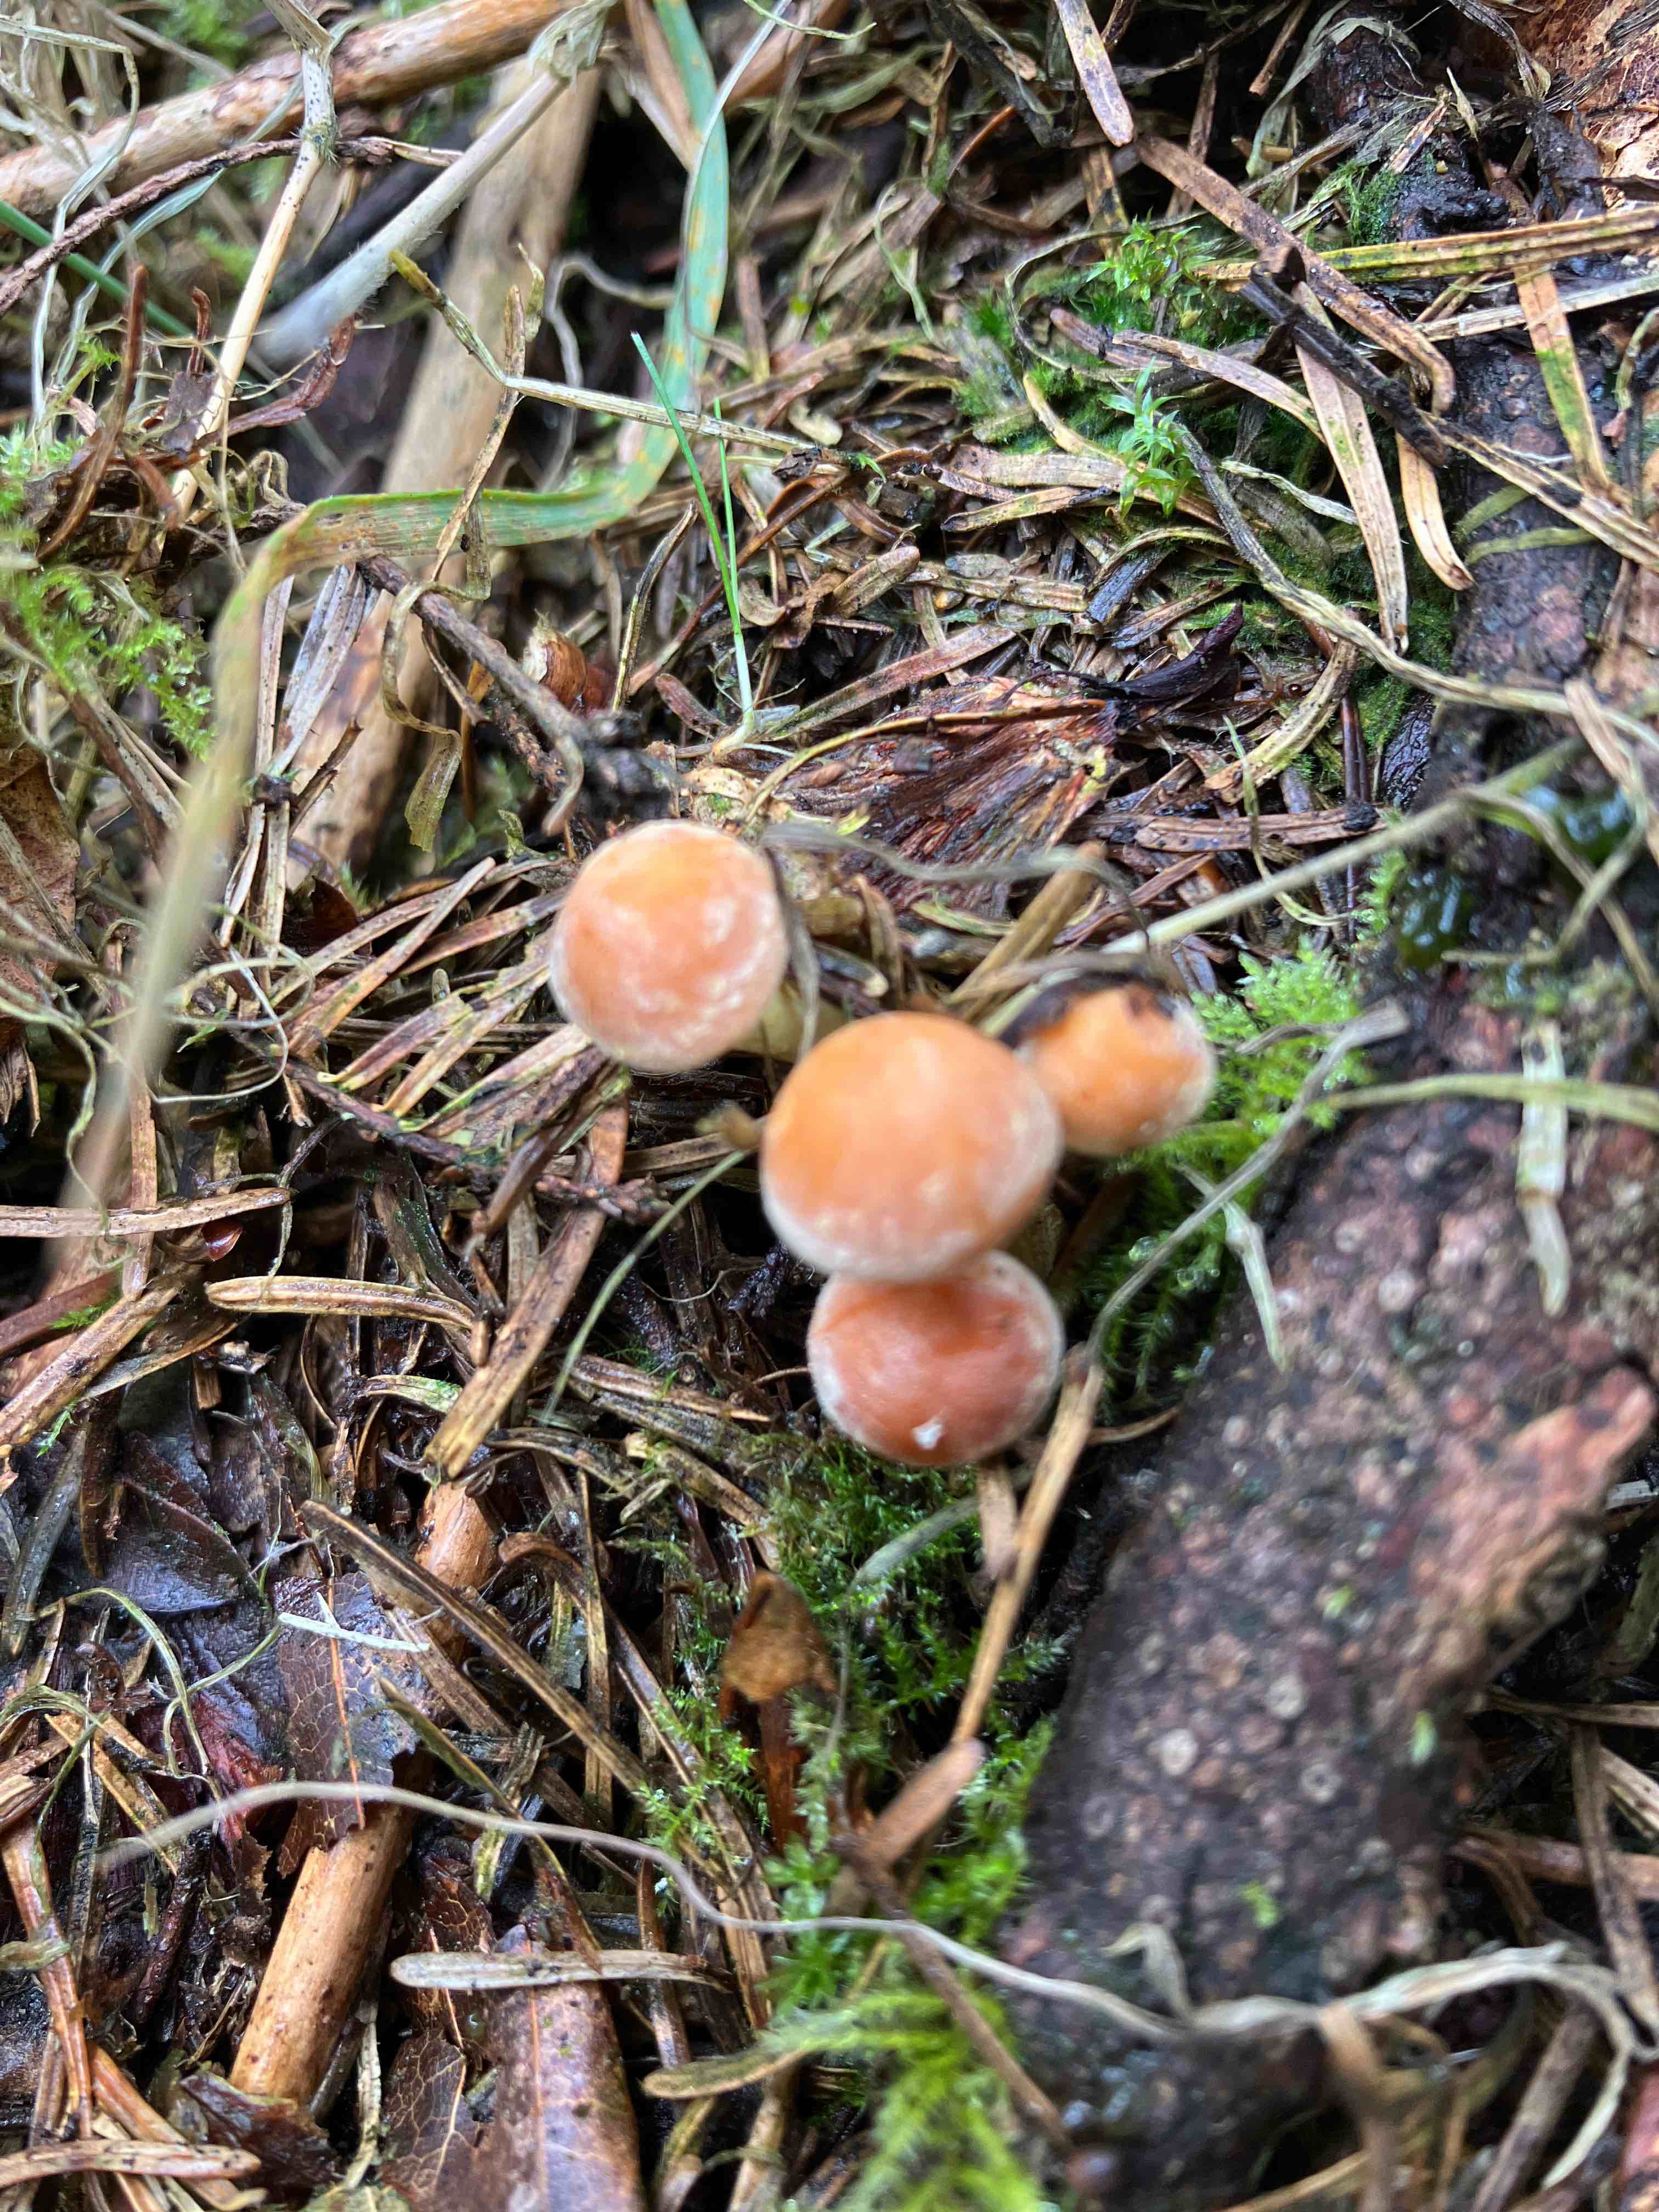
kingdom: Fungi
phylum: Basidiomycota
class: Agaricomycetes
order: Agaricales
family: Strophariaceae
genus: Hypholoma
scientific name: Hypholoma fasciculare
